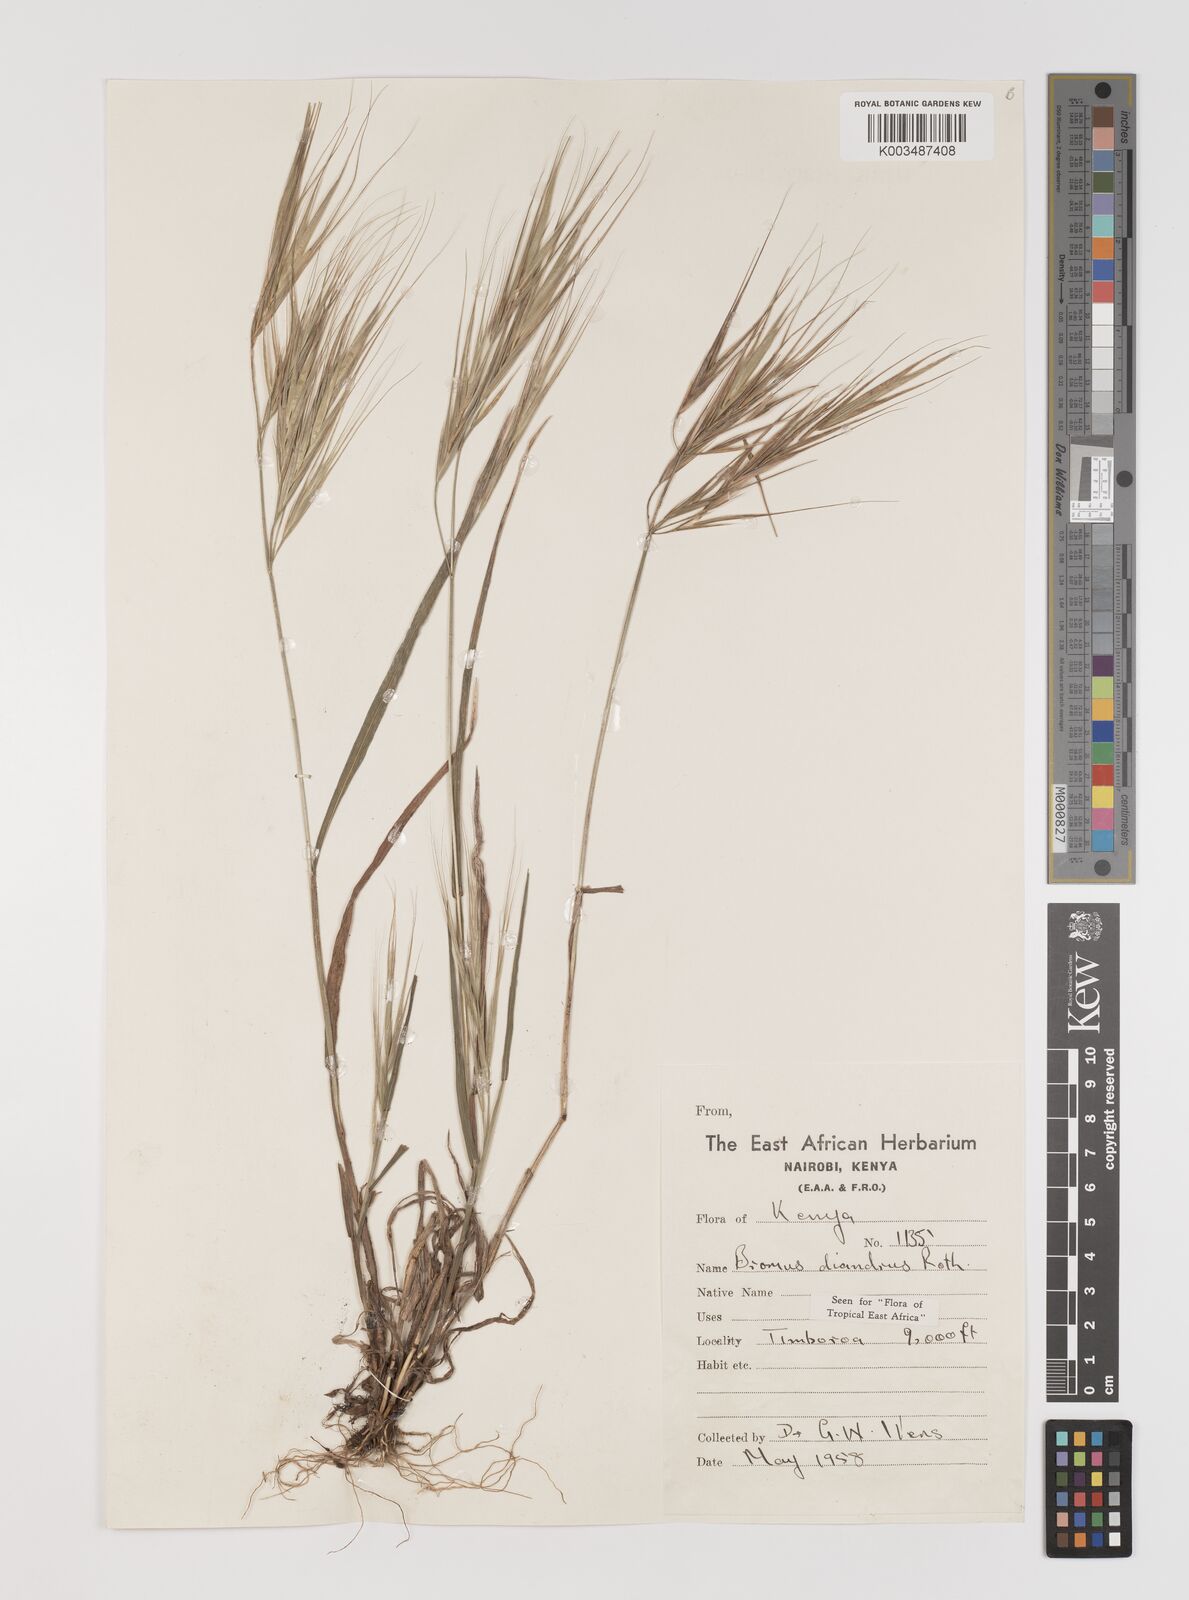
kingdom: Plantae
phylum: Tracheophyta
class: Liliopsida
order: Poales
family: Poaceae
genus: Bromus
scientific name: Bromus diandrus
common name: Ripgut brome
